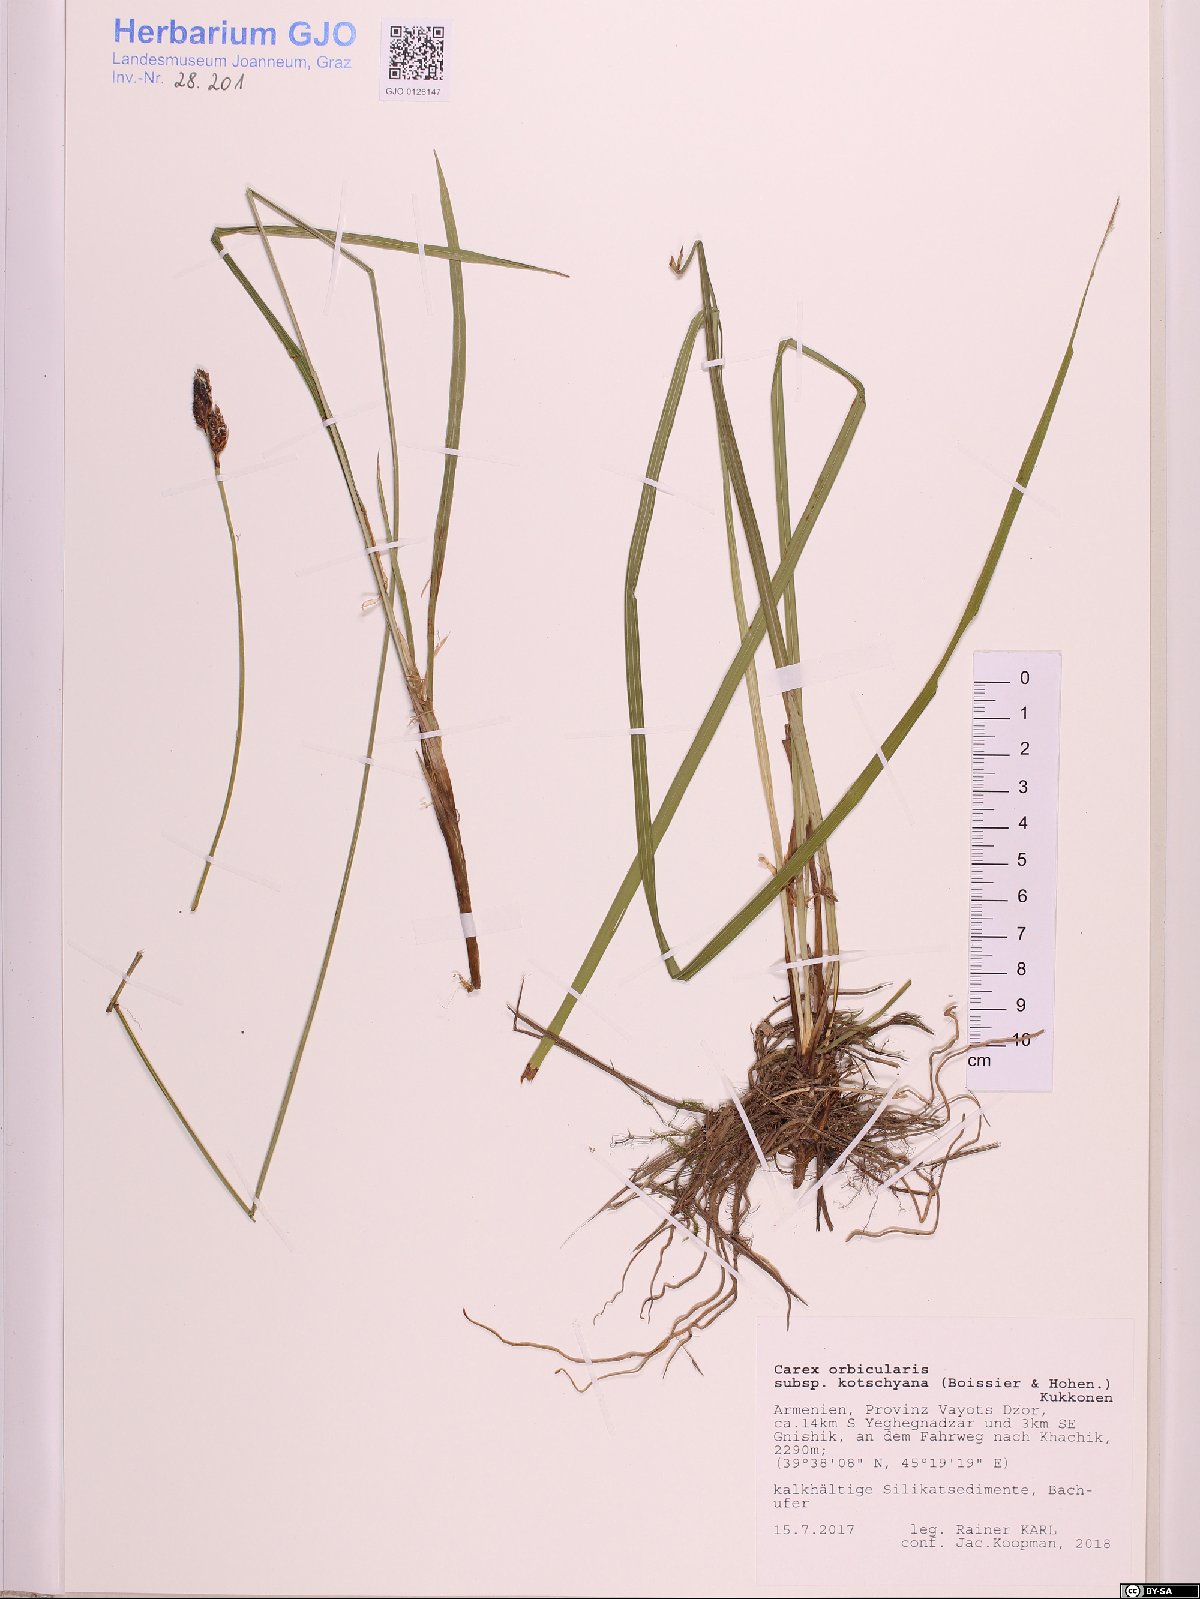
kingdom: Plantae
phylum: Tracheophyta
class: Liliopsida
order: Poales
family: Cyperaceae
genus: Carex
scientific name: Carex orbicularis
